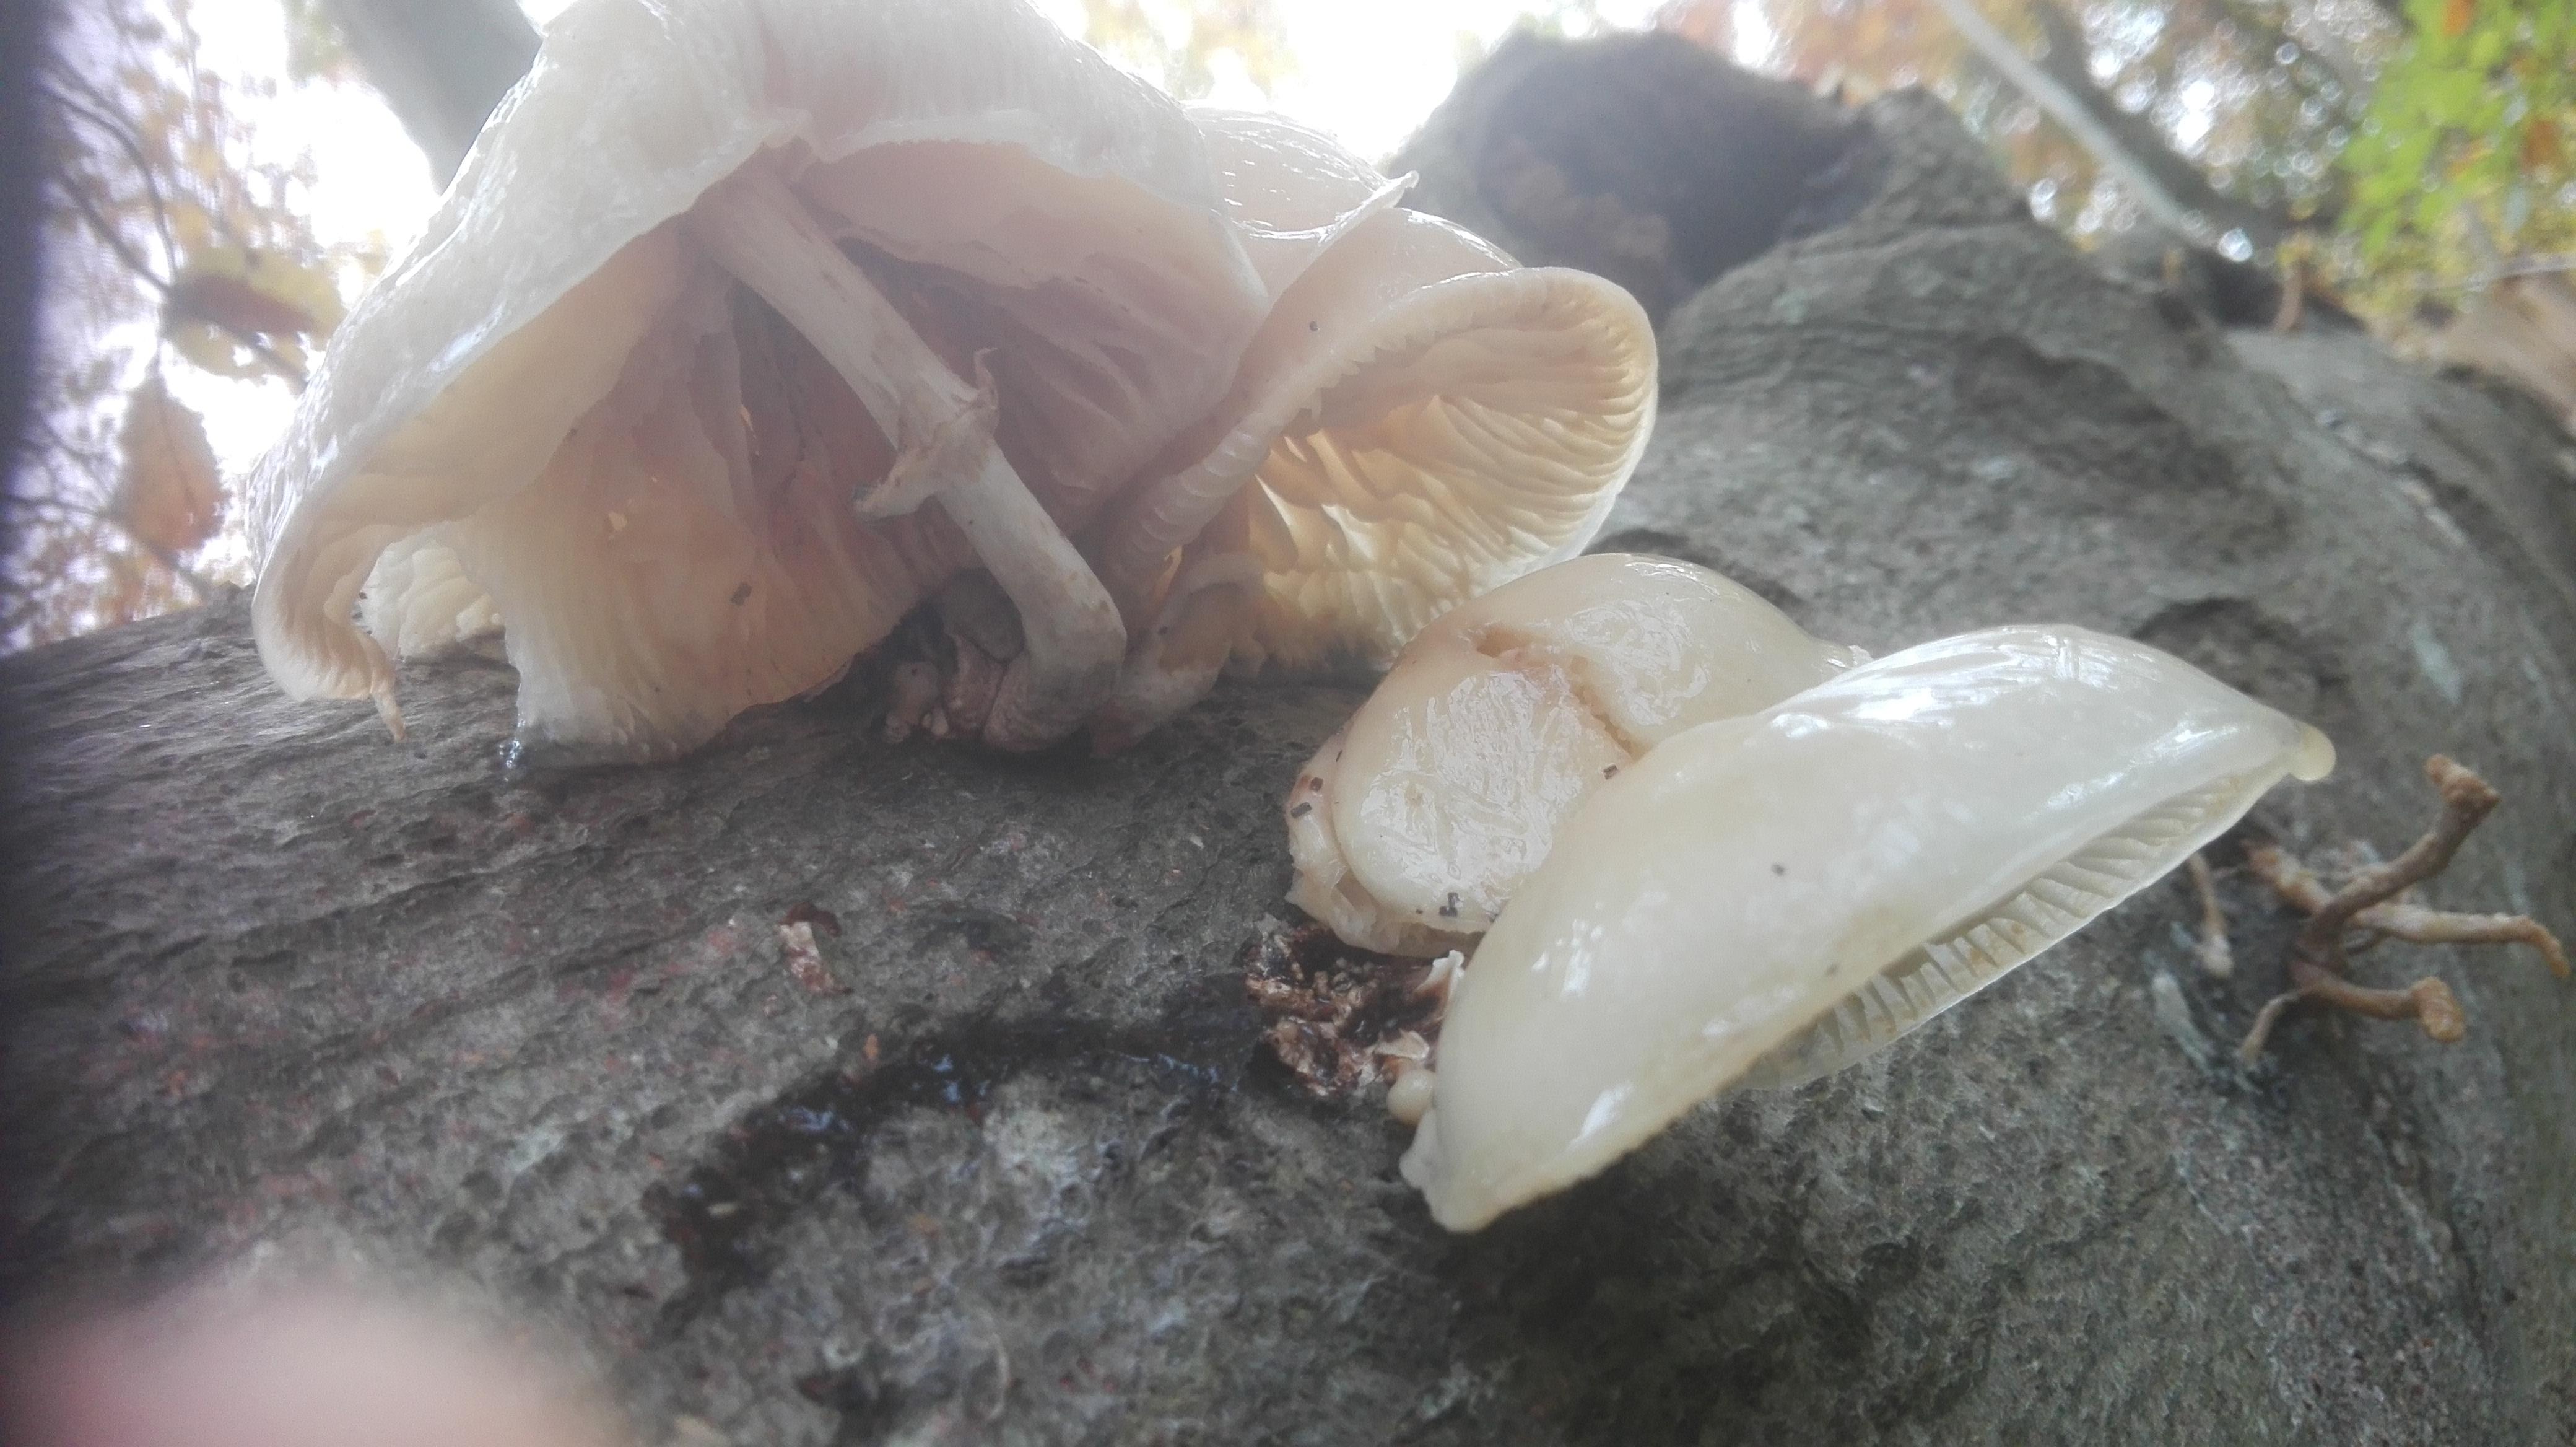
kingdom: Fungi
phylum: Basidiomycota
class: Agaricomycetes
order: Agaricales
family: Physalacriaceae
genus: Mucidula
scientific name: Mucidula mucida
